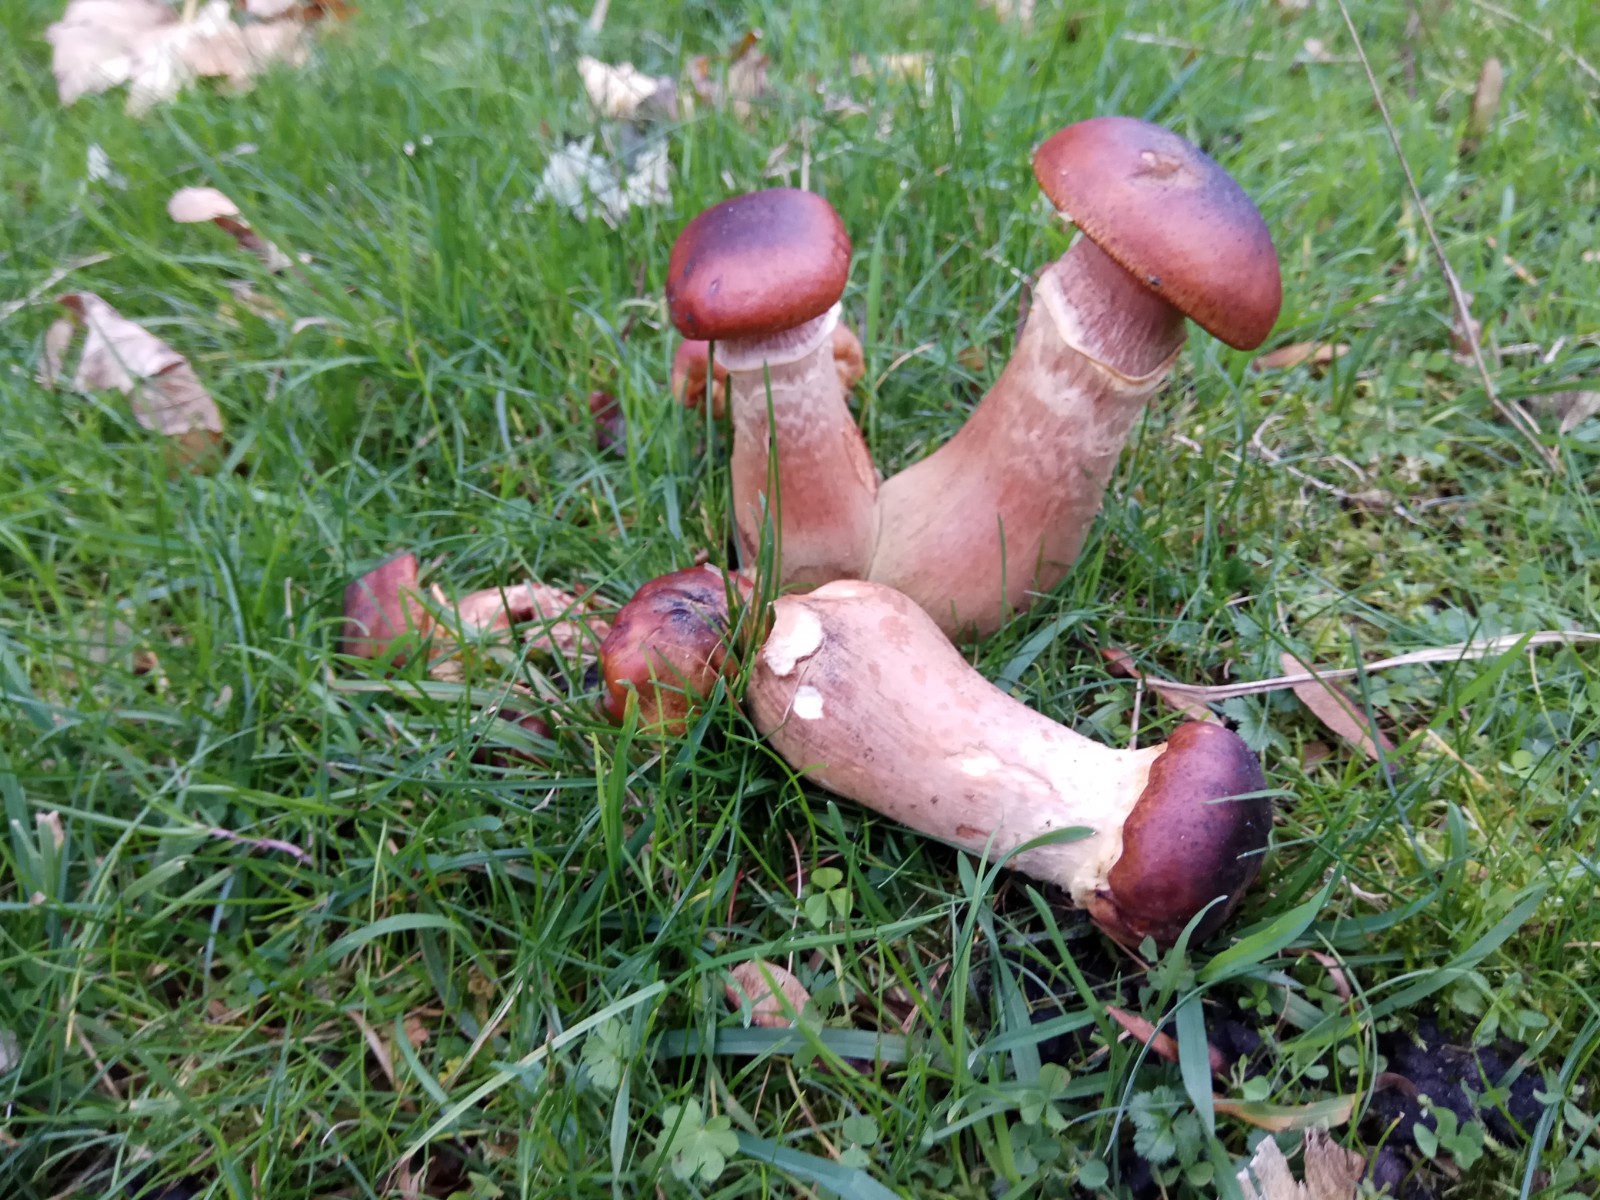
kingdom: Fungi
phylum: Basidiomycota
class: Agaricomycetes
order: Agaricales
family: Physalacriaceae
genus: Armillaria
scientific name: Armillaria
